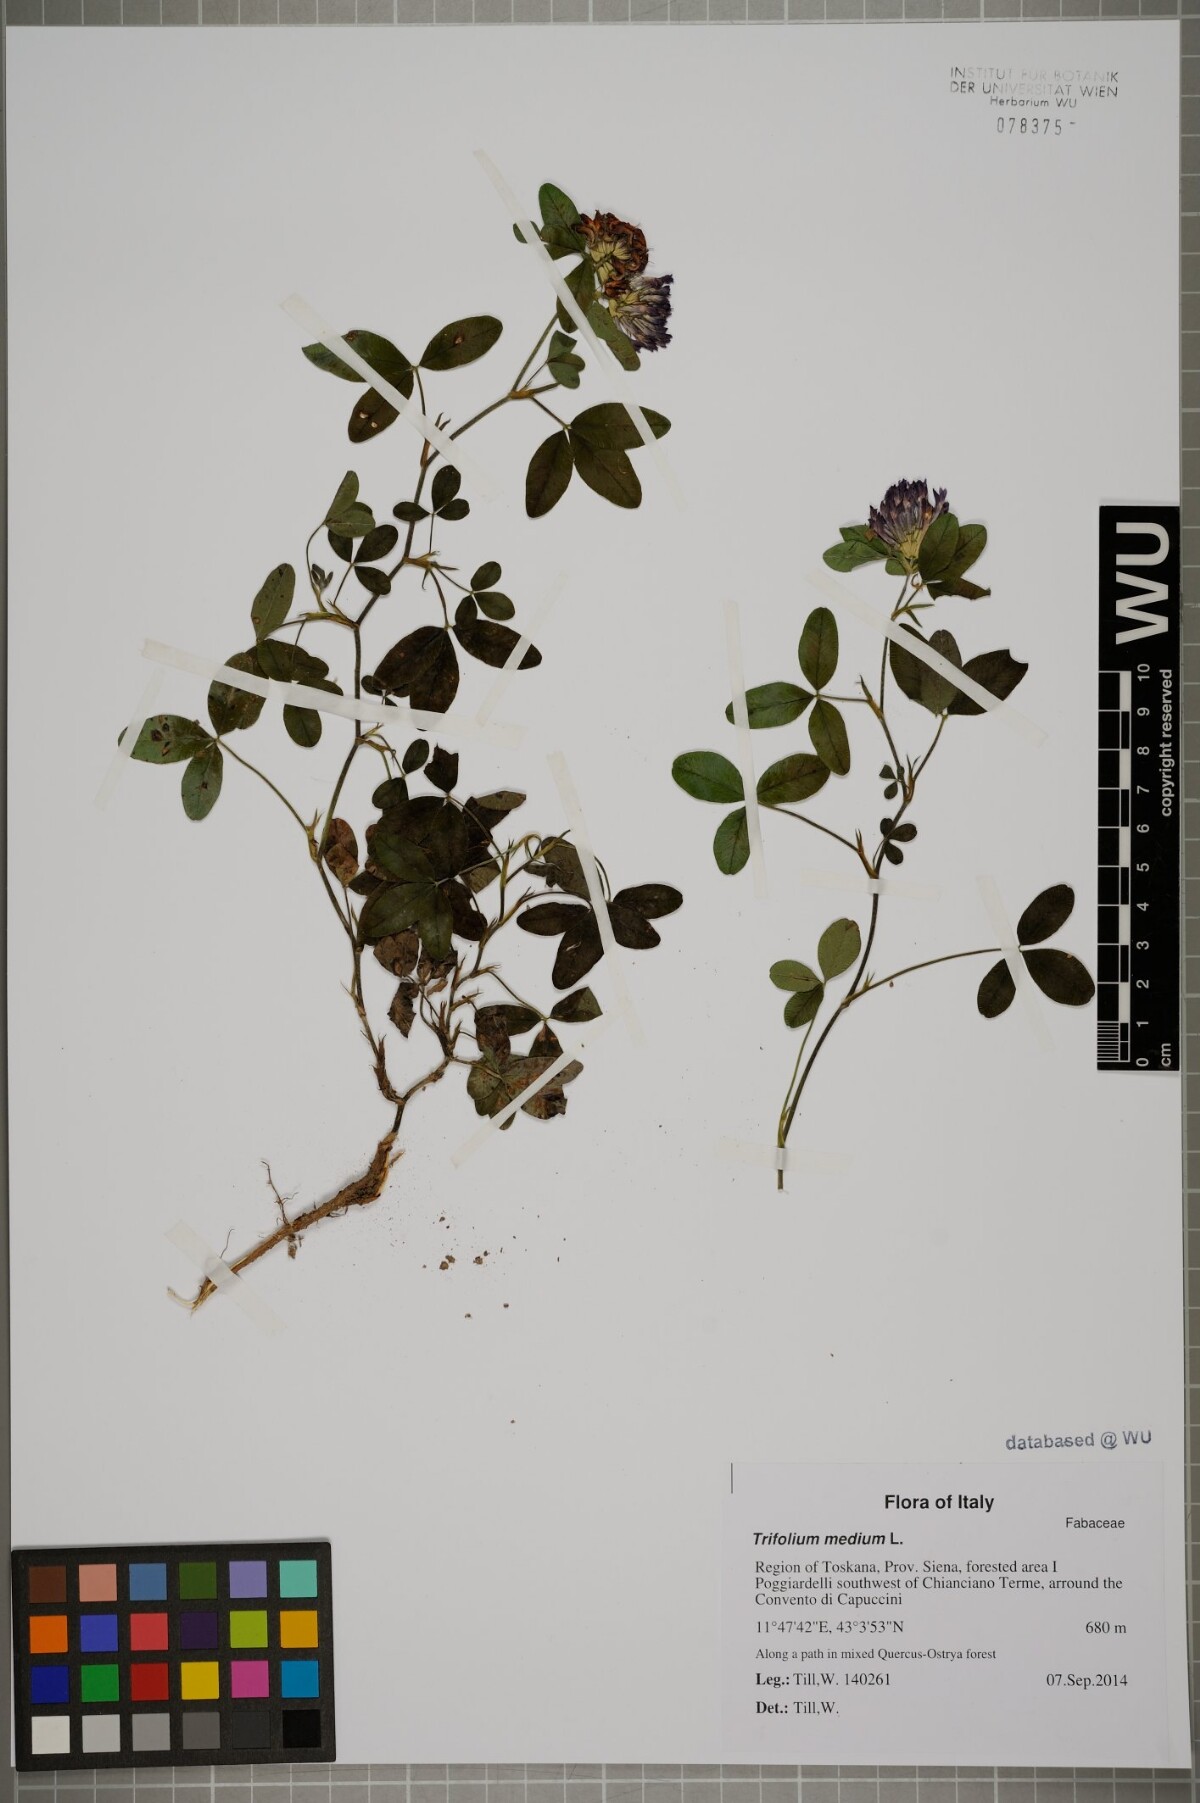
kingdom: Plantae
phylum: Tracheophyta
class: Magnoliopsida
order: Fabales
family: Fabaceae
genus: Trifolium
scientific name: Trifolium medium
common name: Zigzag clover
